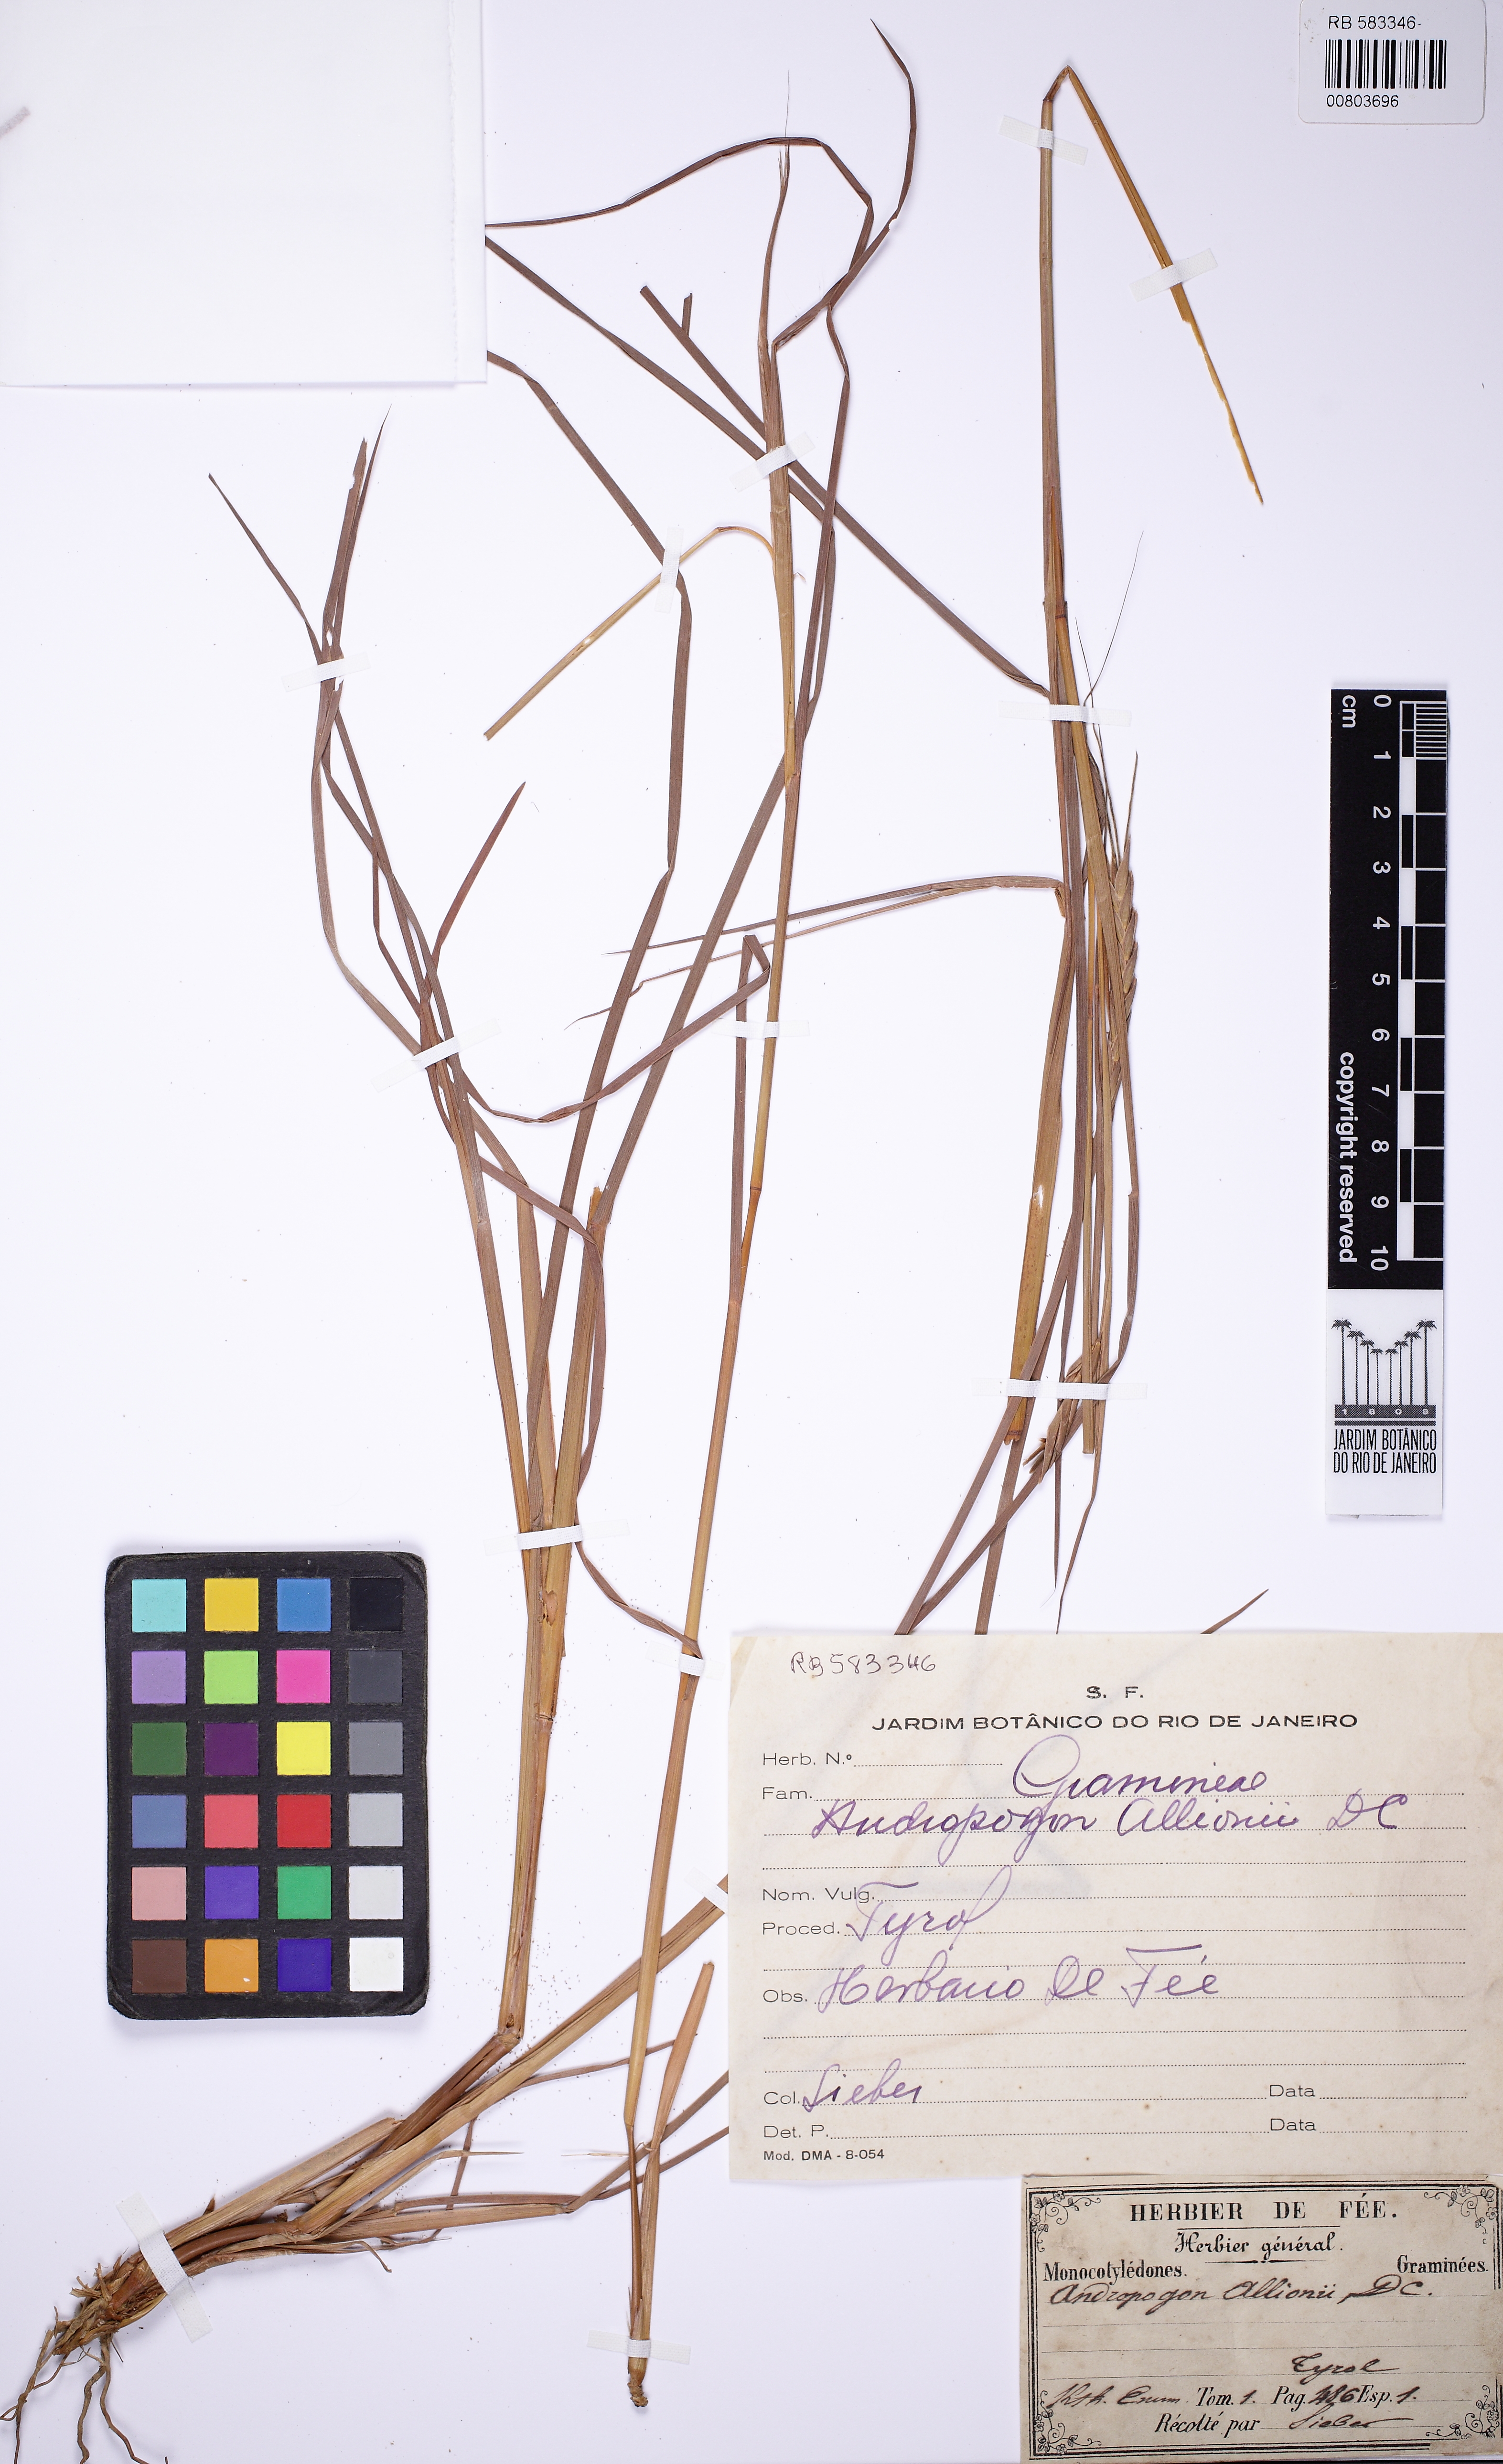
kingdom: Plantae
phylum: Tracheophyta
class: Liliopsida
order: Poales
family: Poaceae
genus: Heteropogon
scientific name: Heteropogon contortus
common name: Tanglehead
